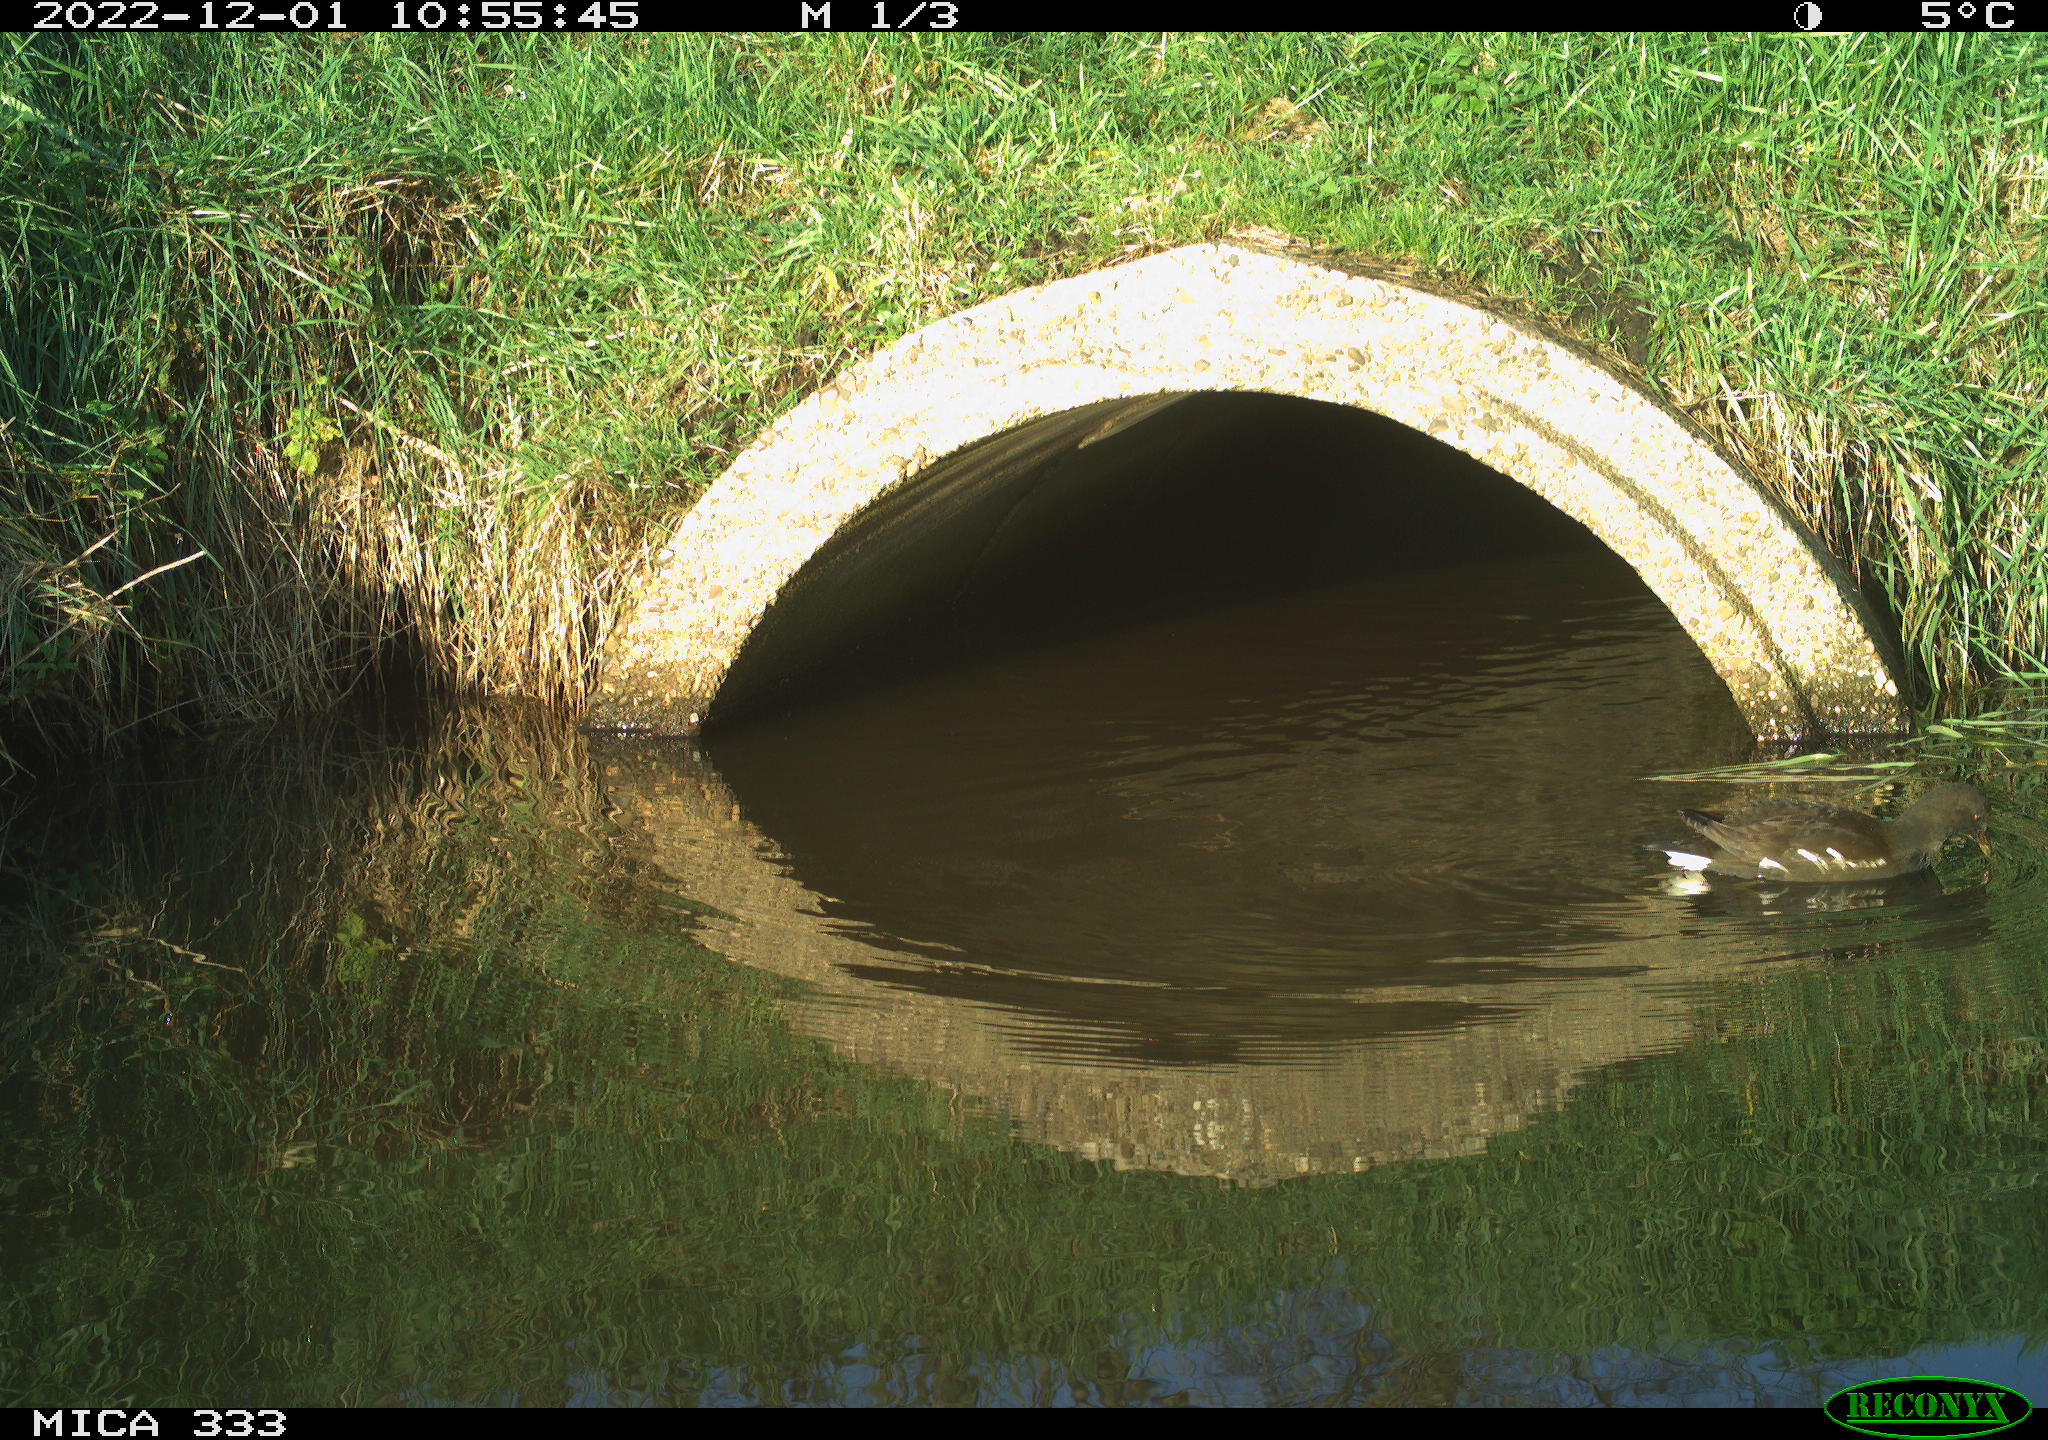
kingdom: Animalia
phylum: Chordata
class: Aves
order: Gruiformes
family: Rallidae
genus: Gallinula
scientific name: Gallinula chloropus
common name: Common moorhen
